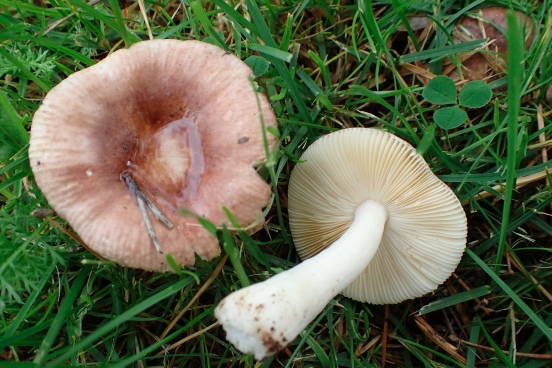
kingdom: Fungi
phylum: Basidiomycota
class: Agaricomycetes
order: Russulales
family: Russulaceae
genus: Russula
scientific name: Russula cessans
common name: fyrre-skørhat
